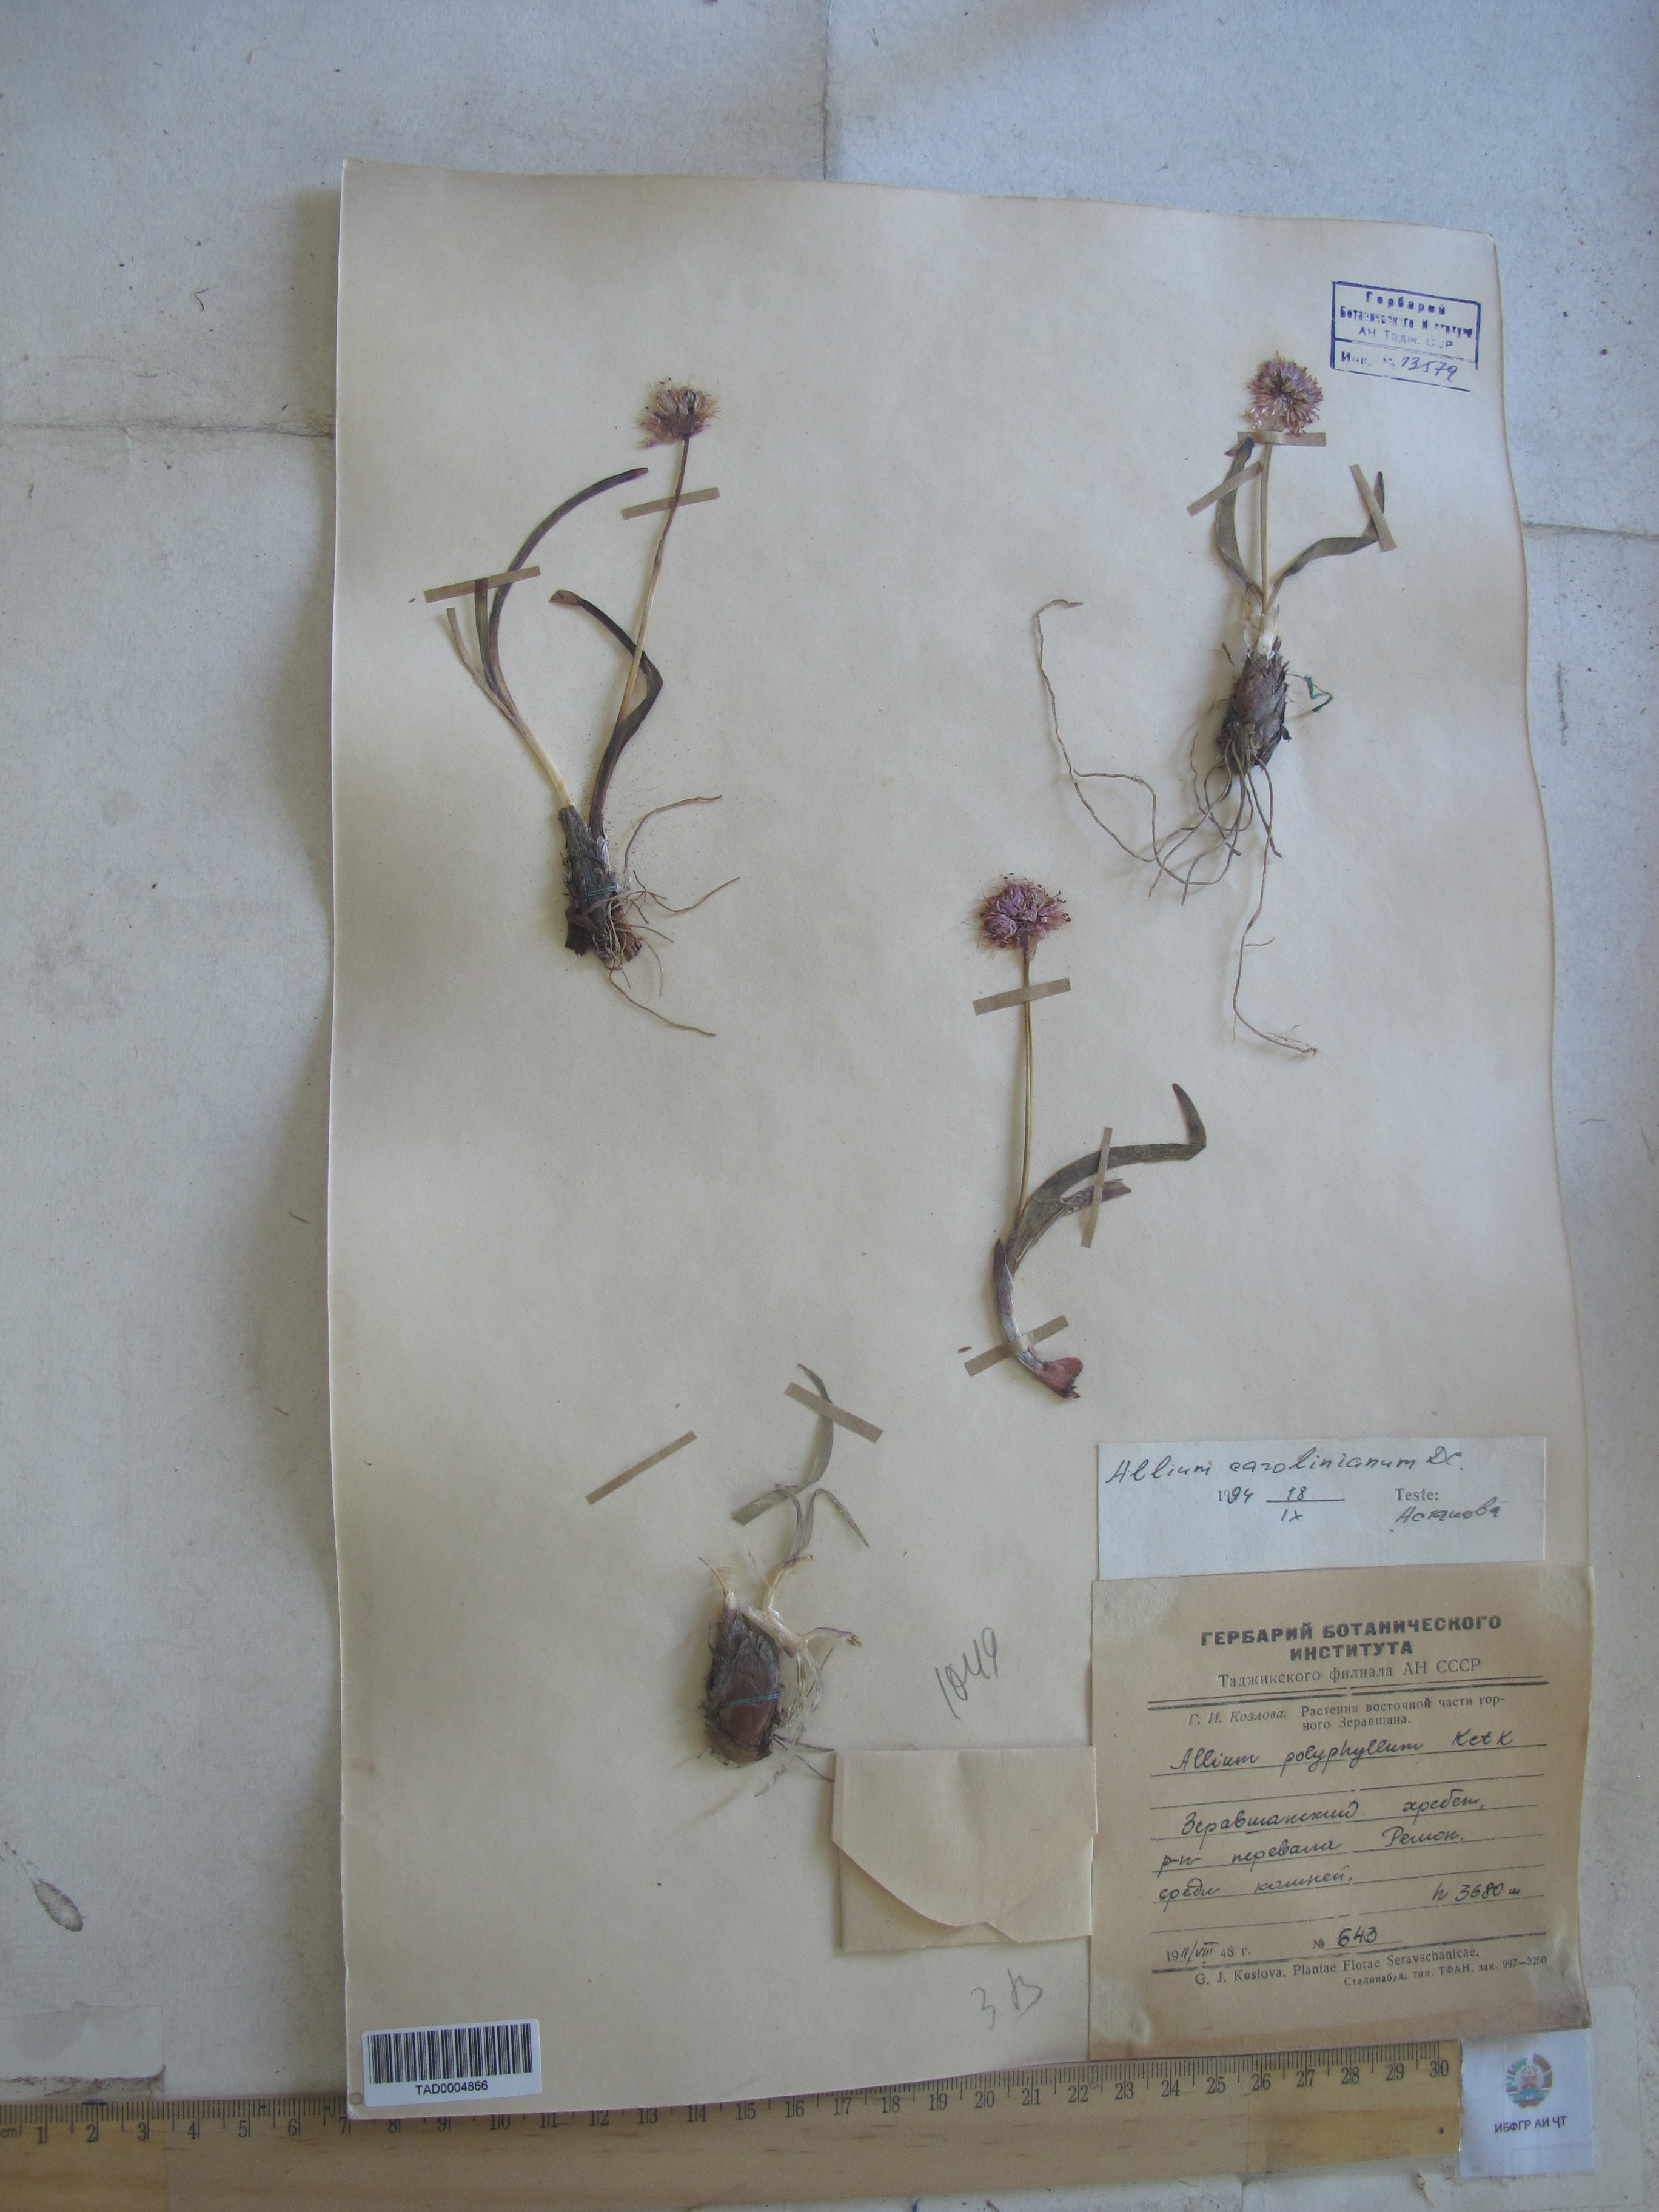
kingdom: Plantae
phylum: Tracheophyta
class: Liliopsida
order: Asparagales
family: Amaryllidaceae
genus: Allium
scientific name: Allium carolinianum
